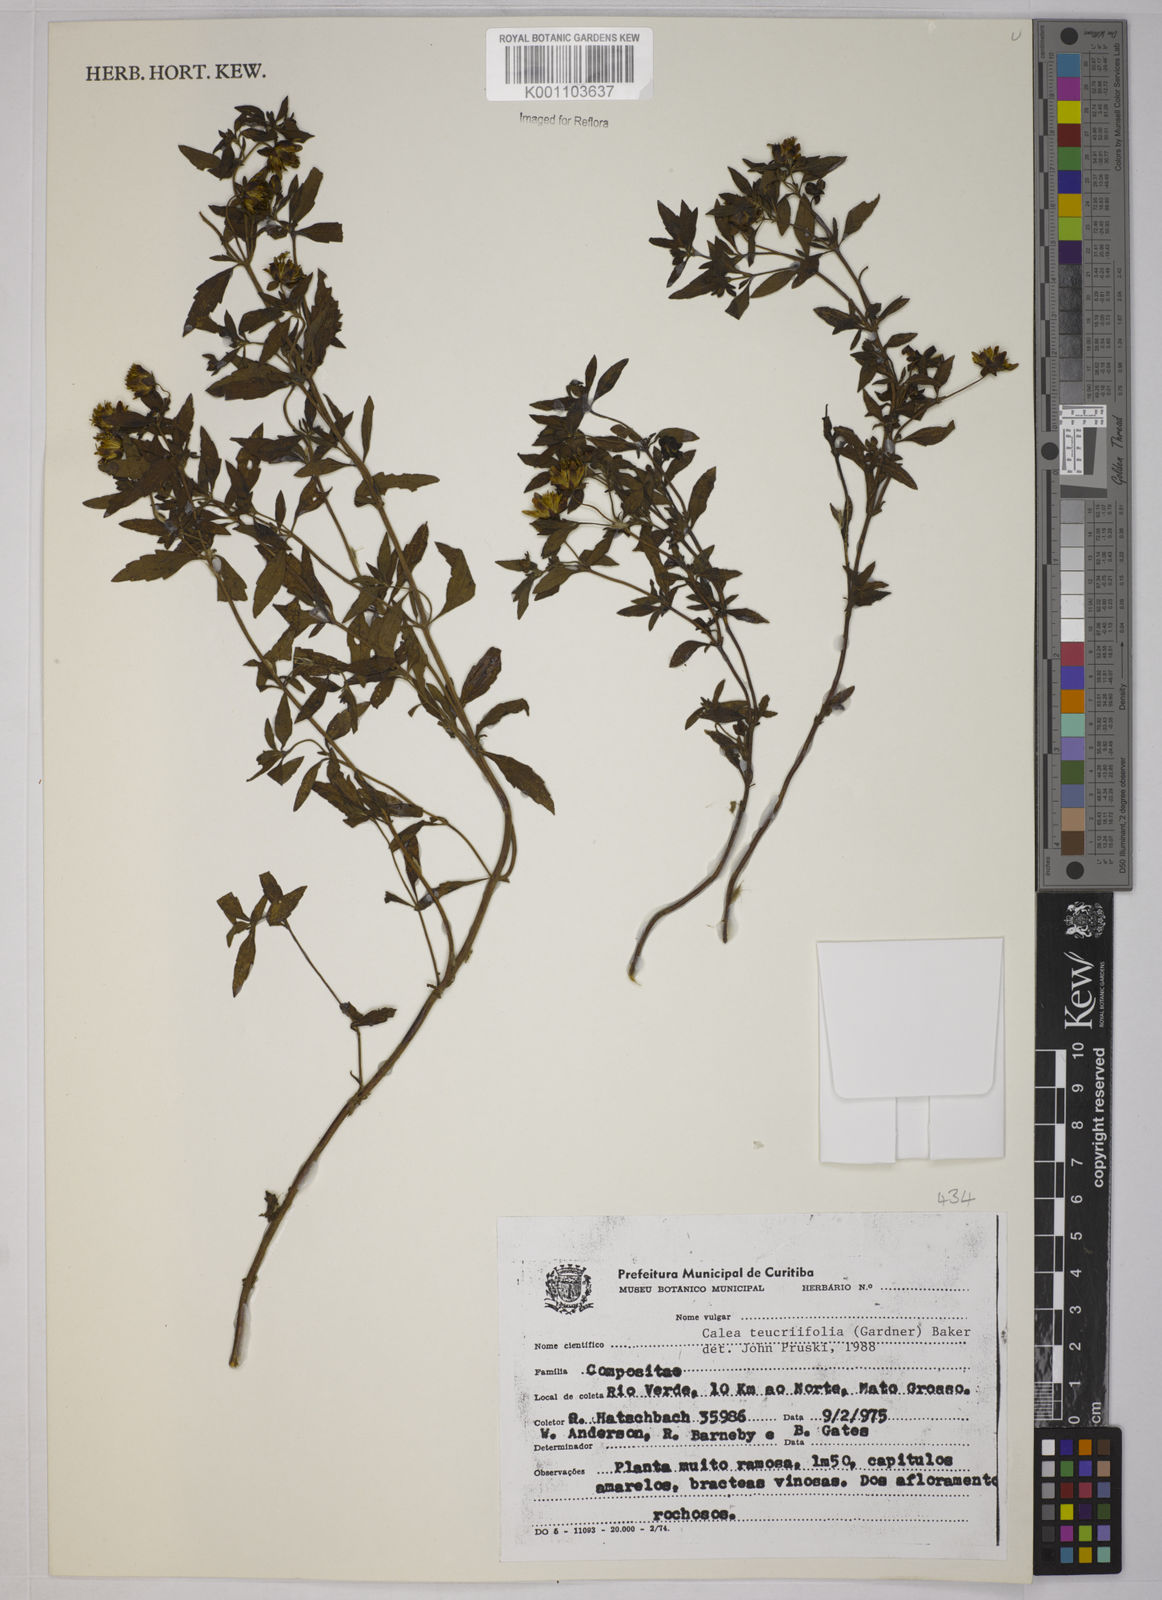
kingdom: Plantae
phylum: Tracheophyta
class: Magnoliopsida
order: Asterales
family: Asteraceae
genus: Calea
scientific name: Calea teucriifolia
